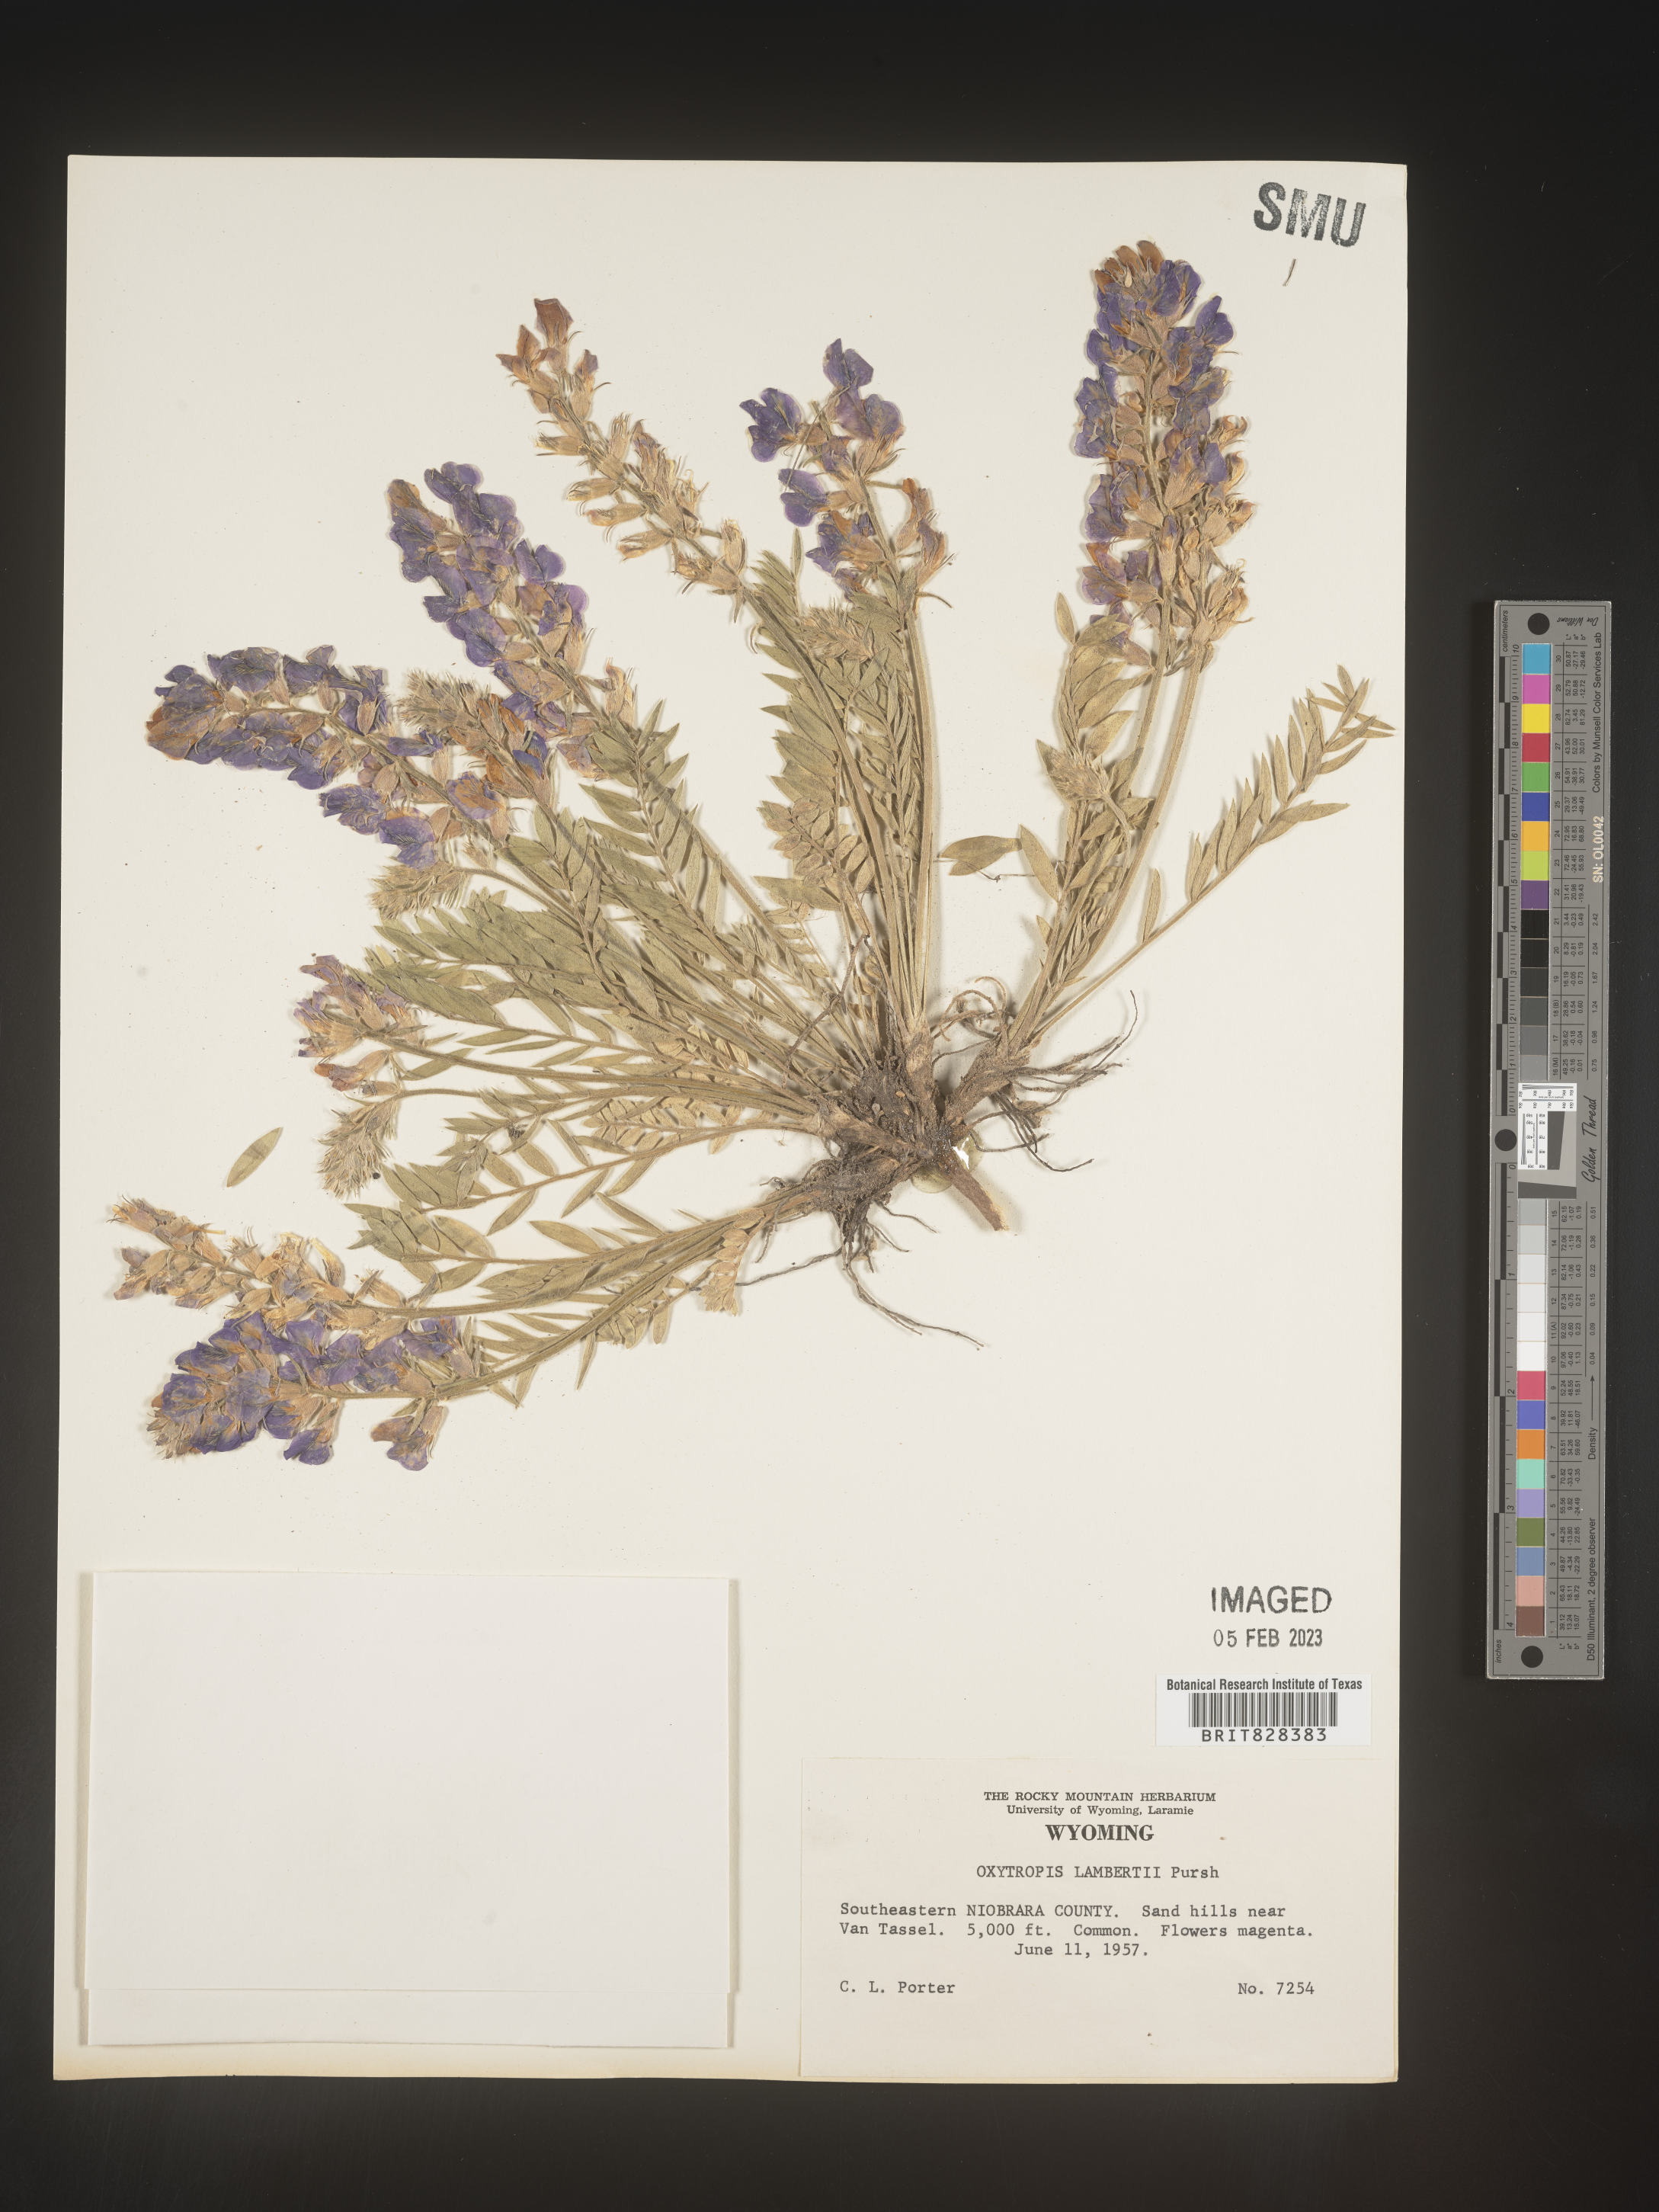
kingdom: Plantae
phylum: Tracheophyta
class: Magnoliopsida
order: Fabales
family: Fabaceae
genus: Oxytropis
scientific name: Oxytropis lambertii
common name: Purple locoweed
